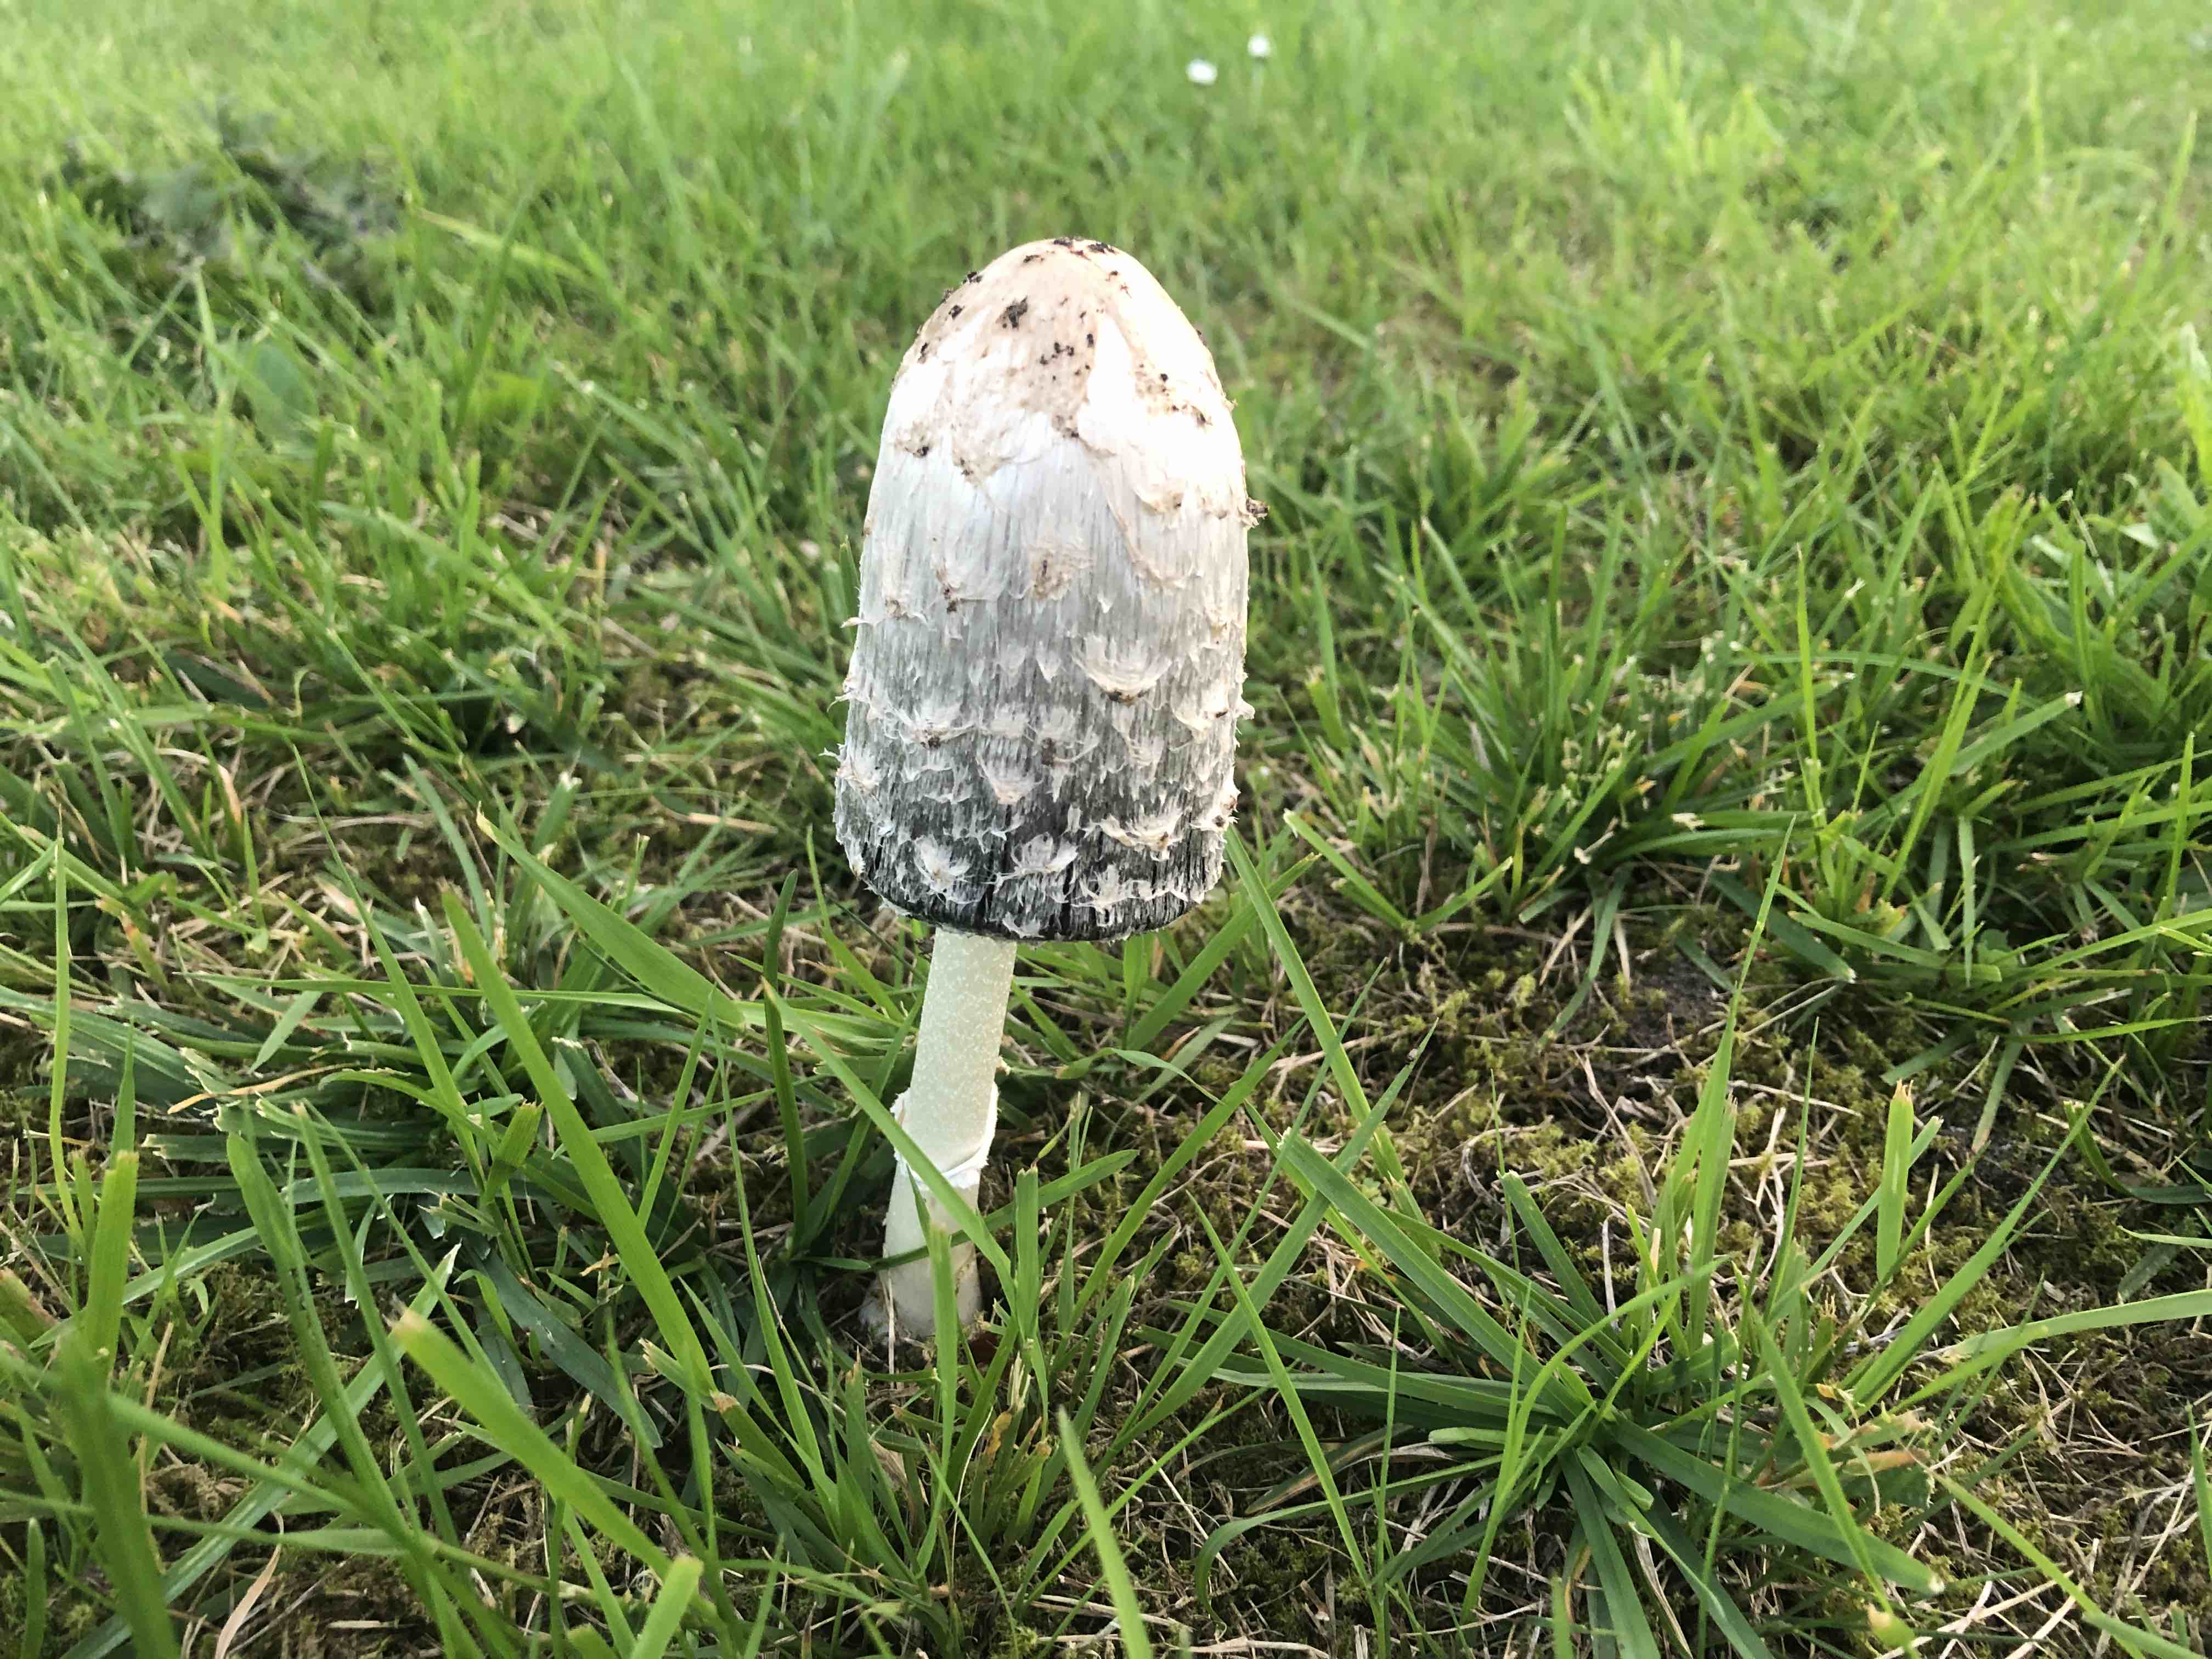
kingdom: Fungi
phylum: Basidiomycota
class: Agaricomycetes
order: Agaricales
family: Agaricaceae
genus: Coprinus
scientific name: Coprinus comatus
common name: stor parykhat
